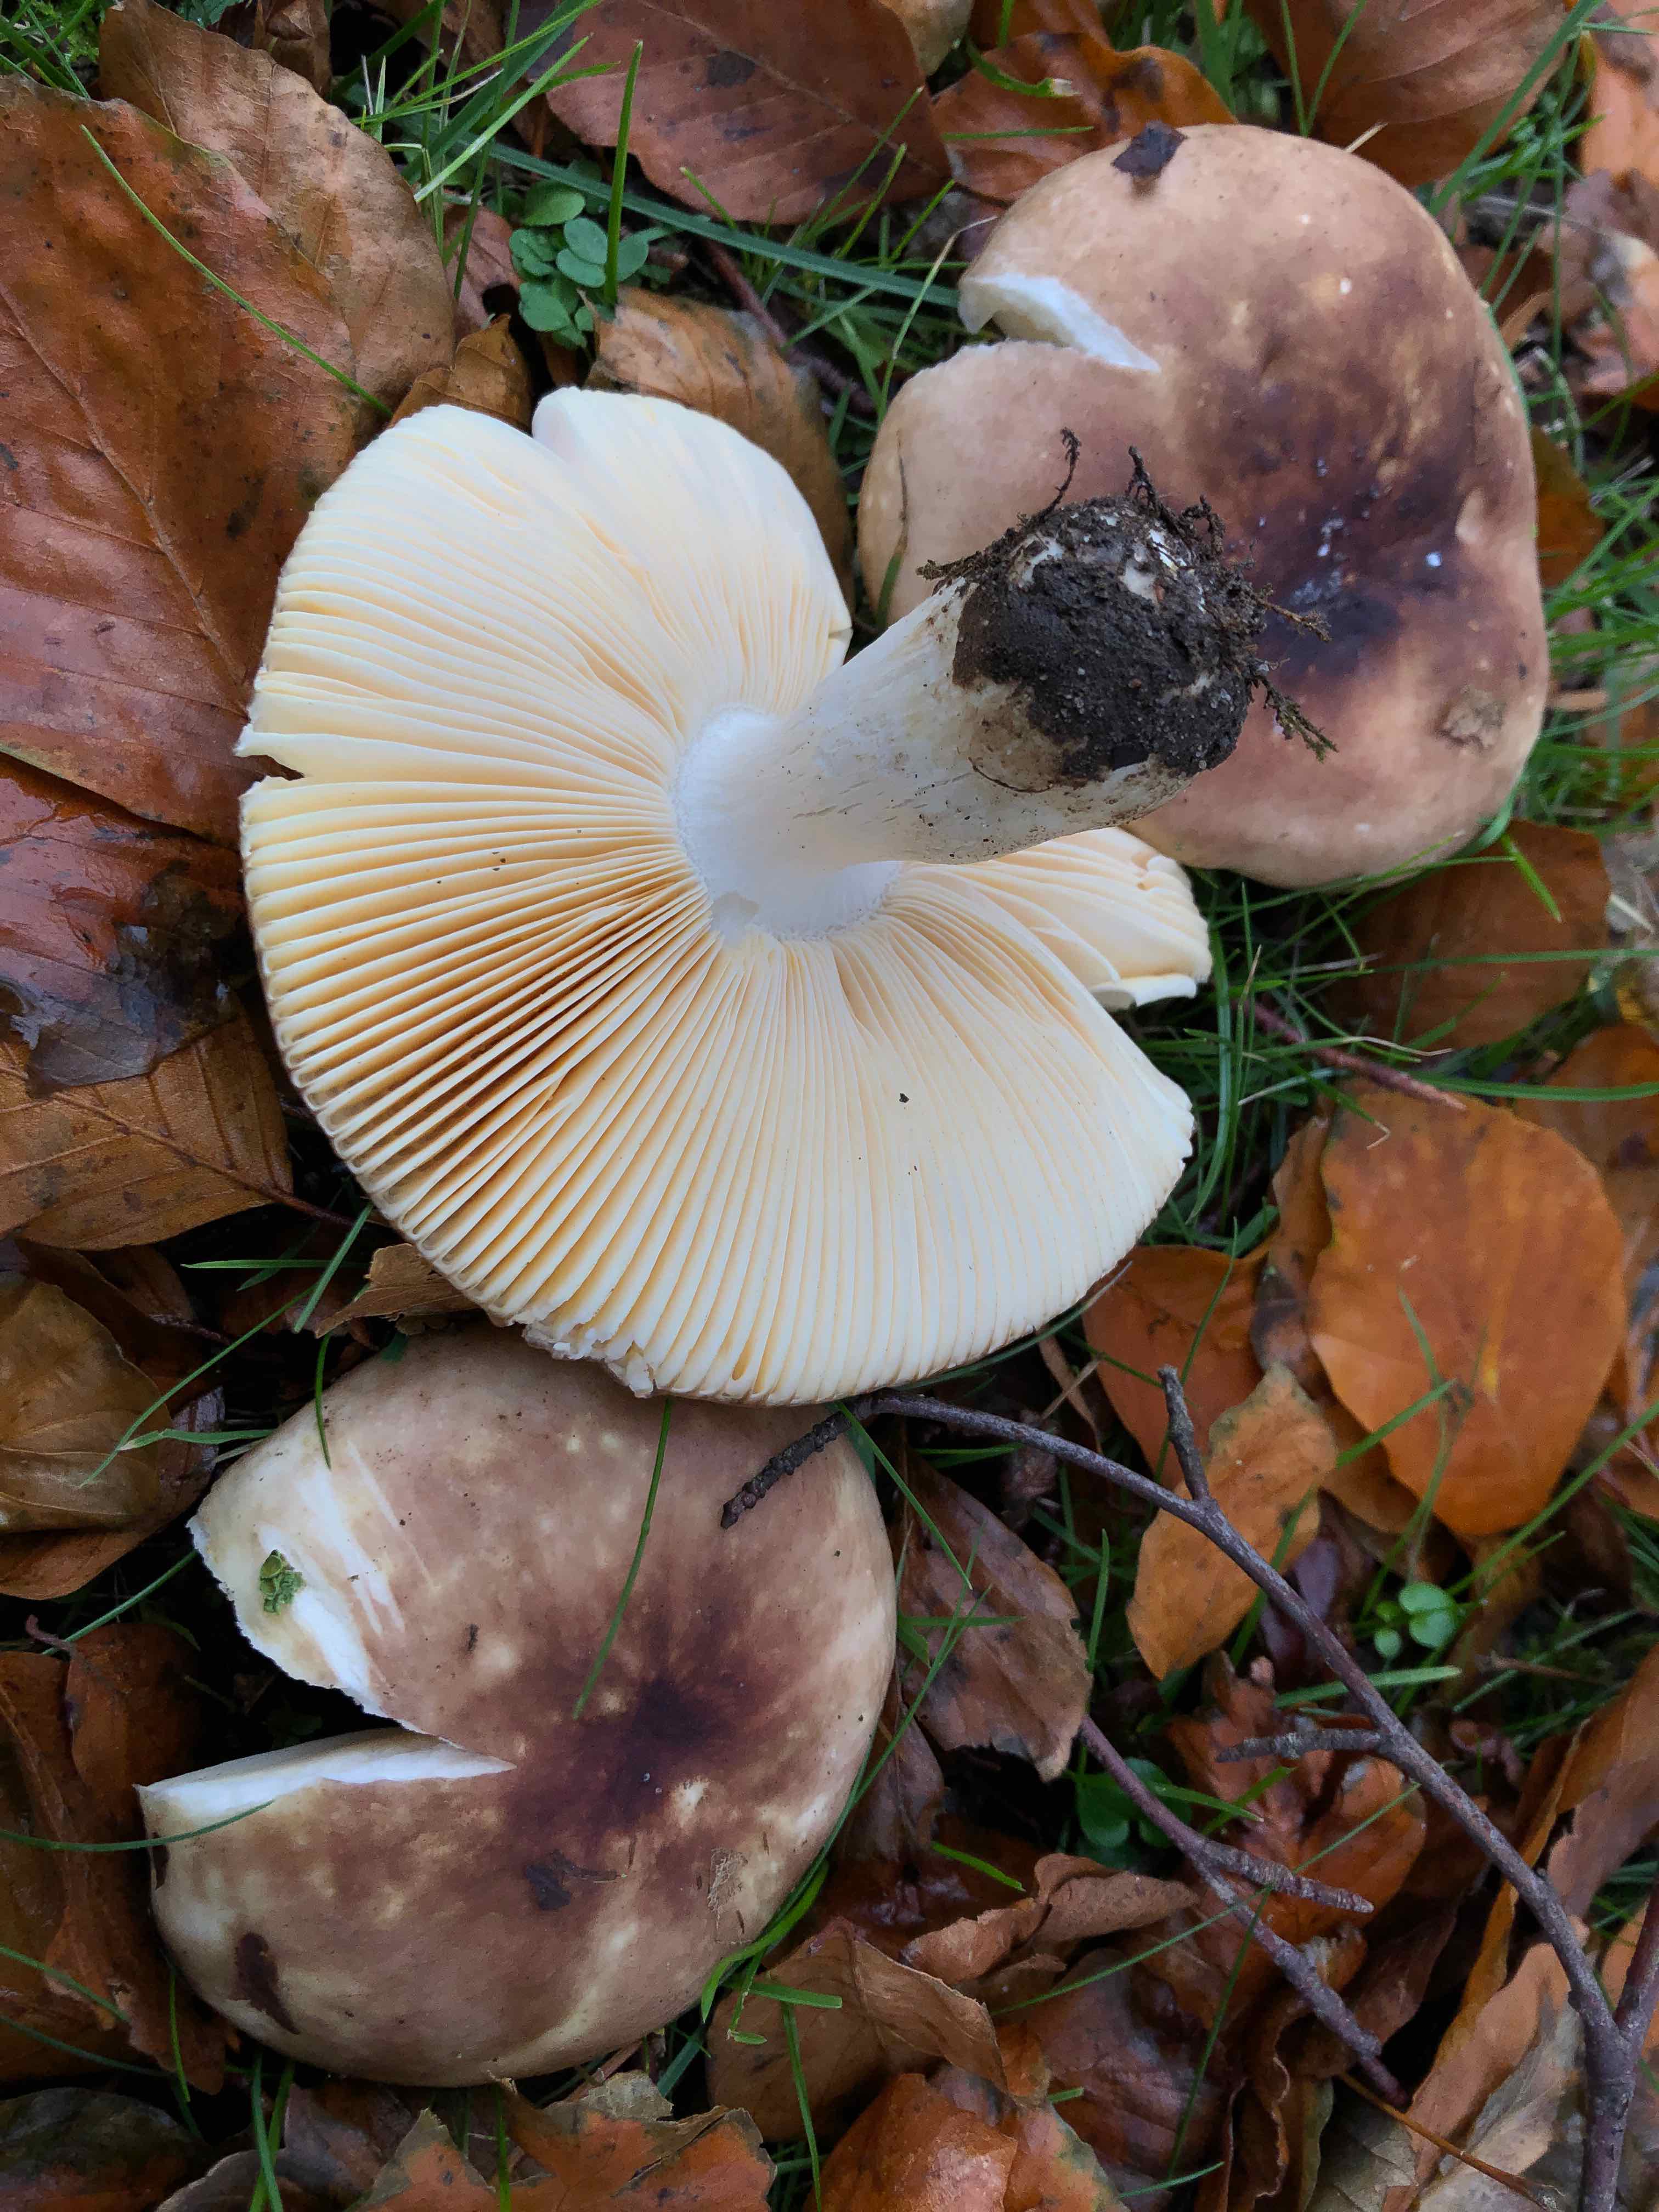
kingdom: Fungi
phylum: Basidiomycota
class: Agaricomycetes
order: Russulales
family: Russulaceae
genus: Russula
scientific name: Russula cuprea
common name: kanel-skørhat
